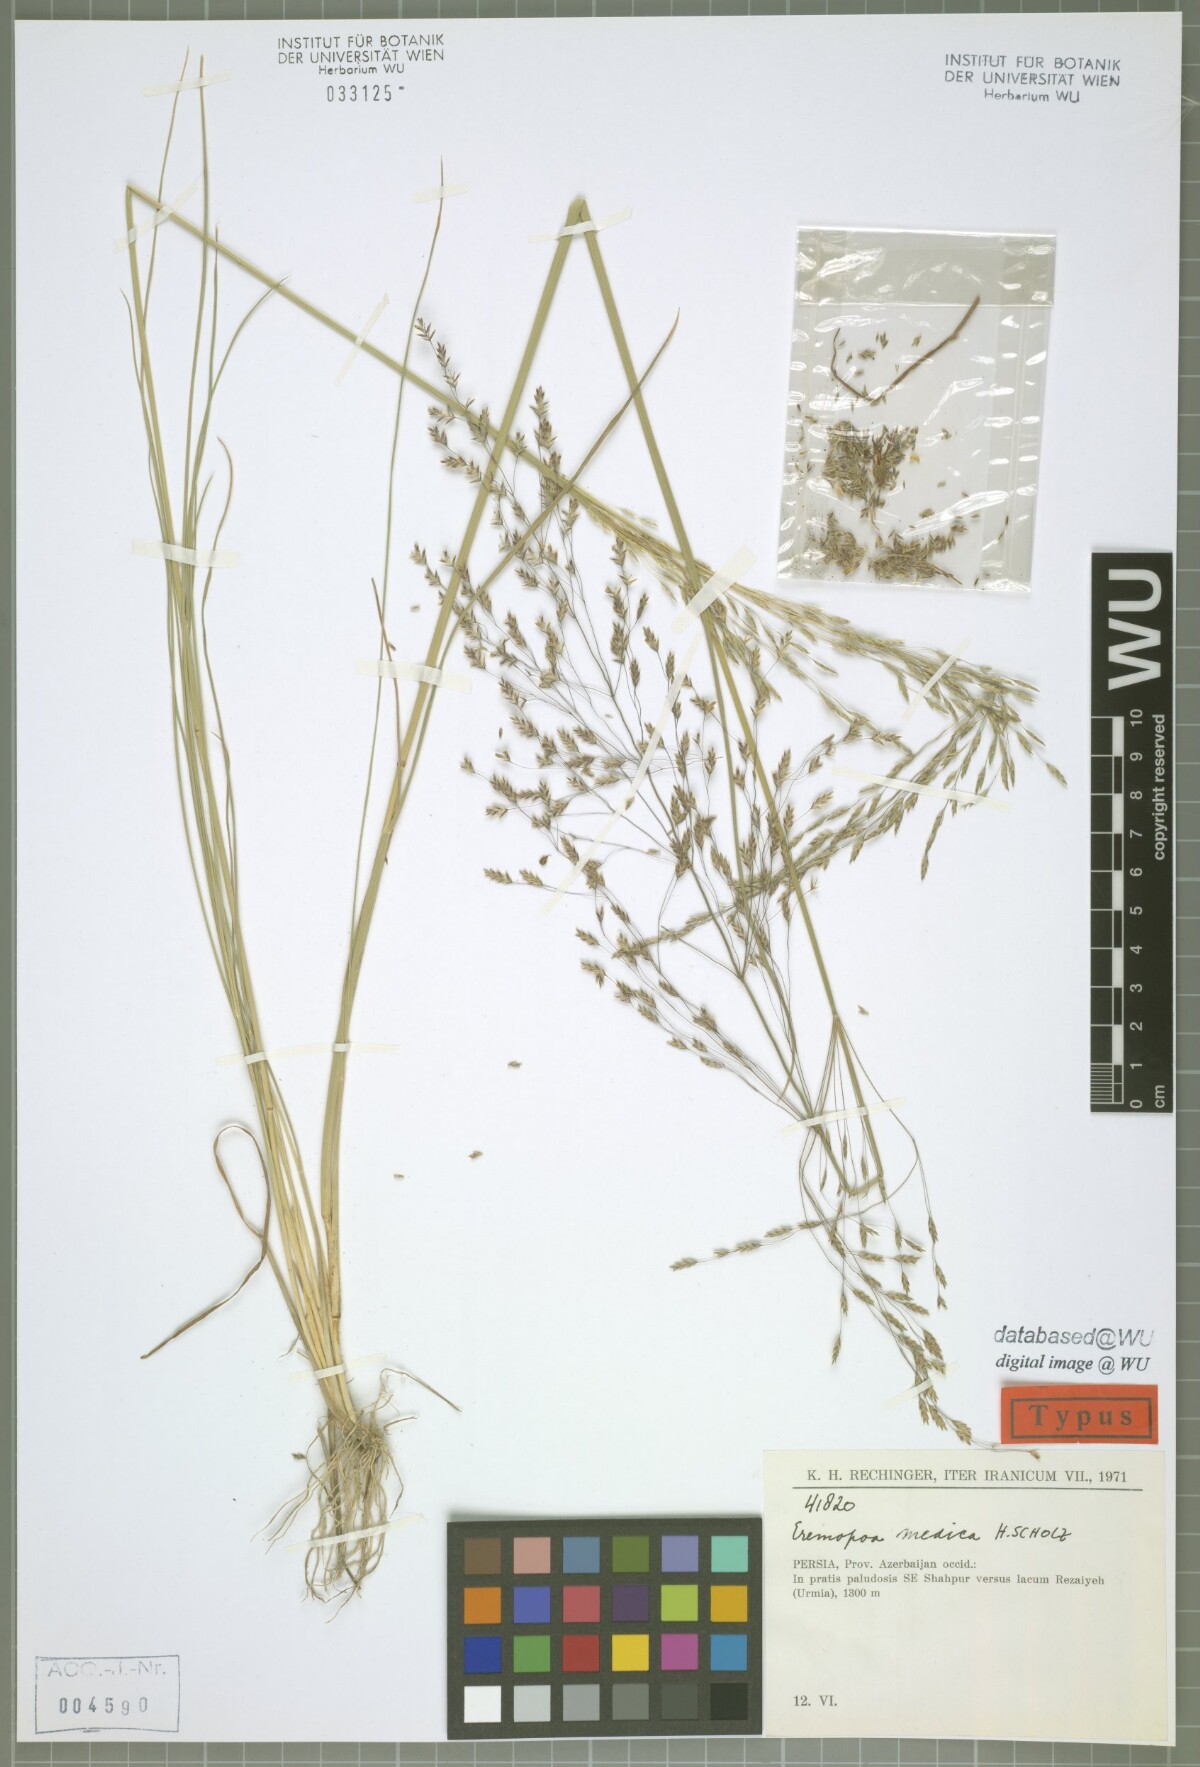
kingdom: Plantae
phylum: Tracheophyta
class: Liliopsida
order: Poales
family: Poaceae
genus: Puccinellia
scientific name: Puccinellia gigantea
